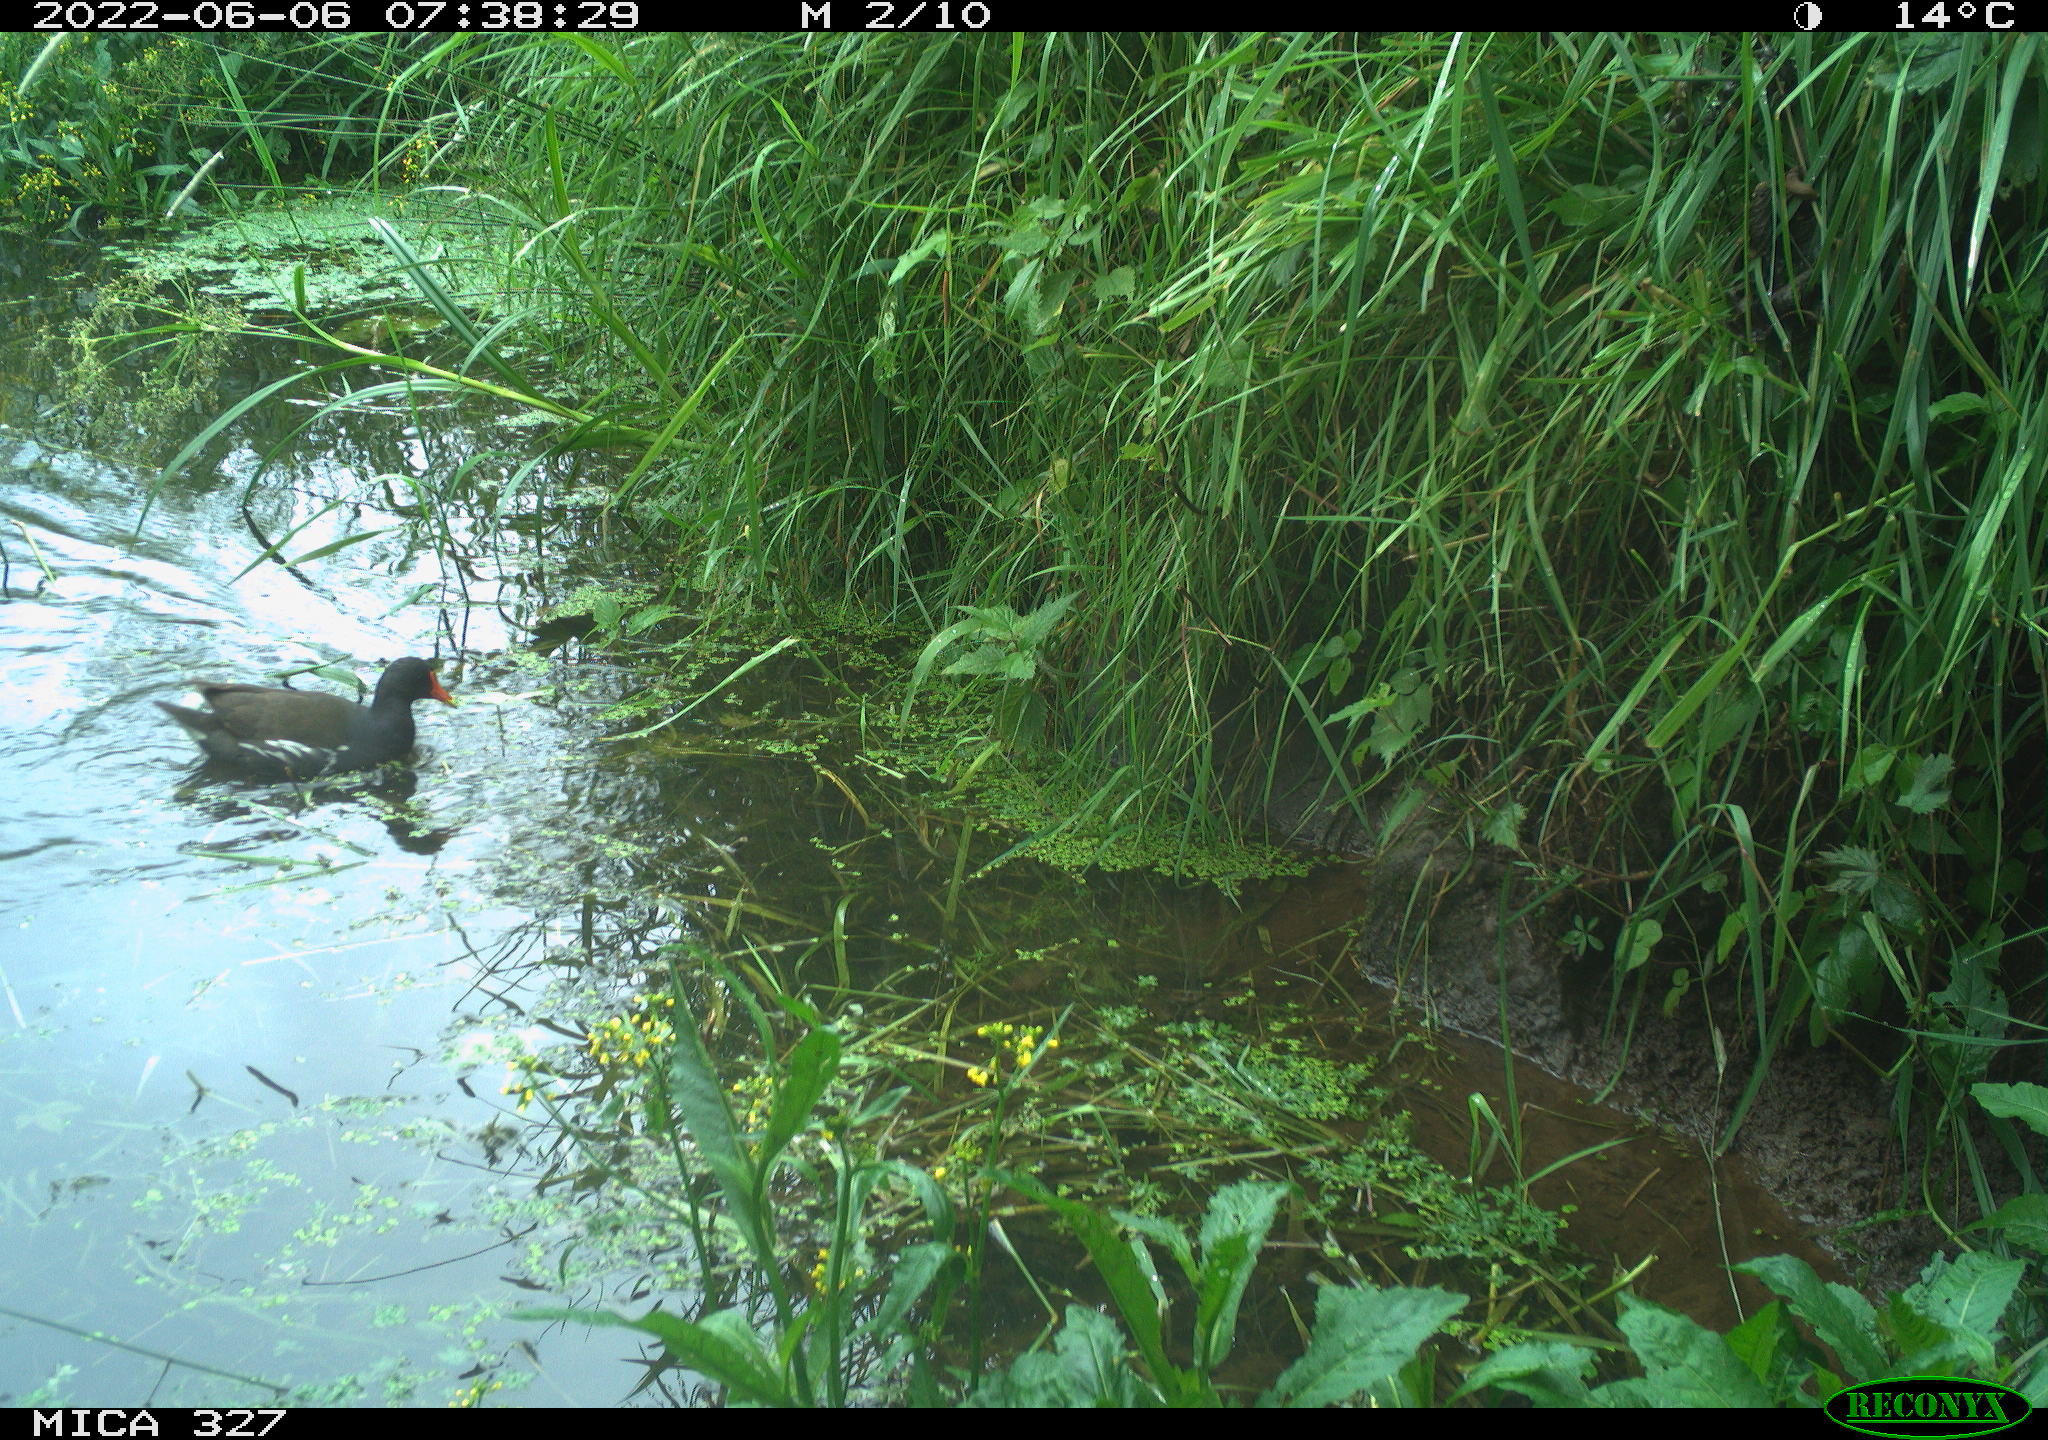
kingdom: Animalia
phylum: Chordata
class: Aves
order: Gruiformes
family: Rallidae
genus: Gallinula
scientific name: Gallinula chloropus
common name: Common moorhen
